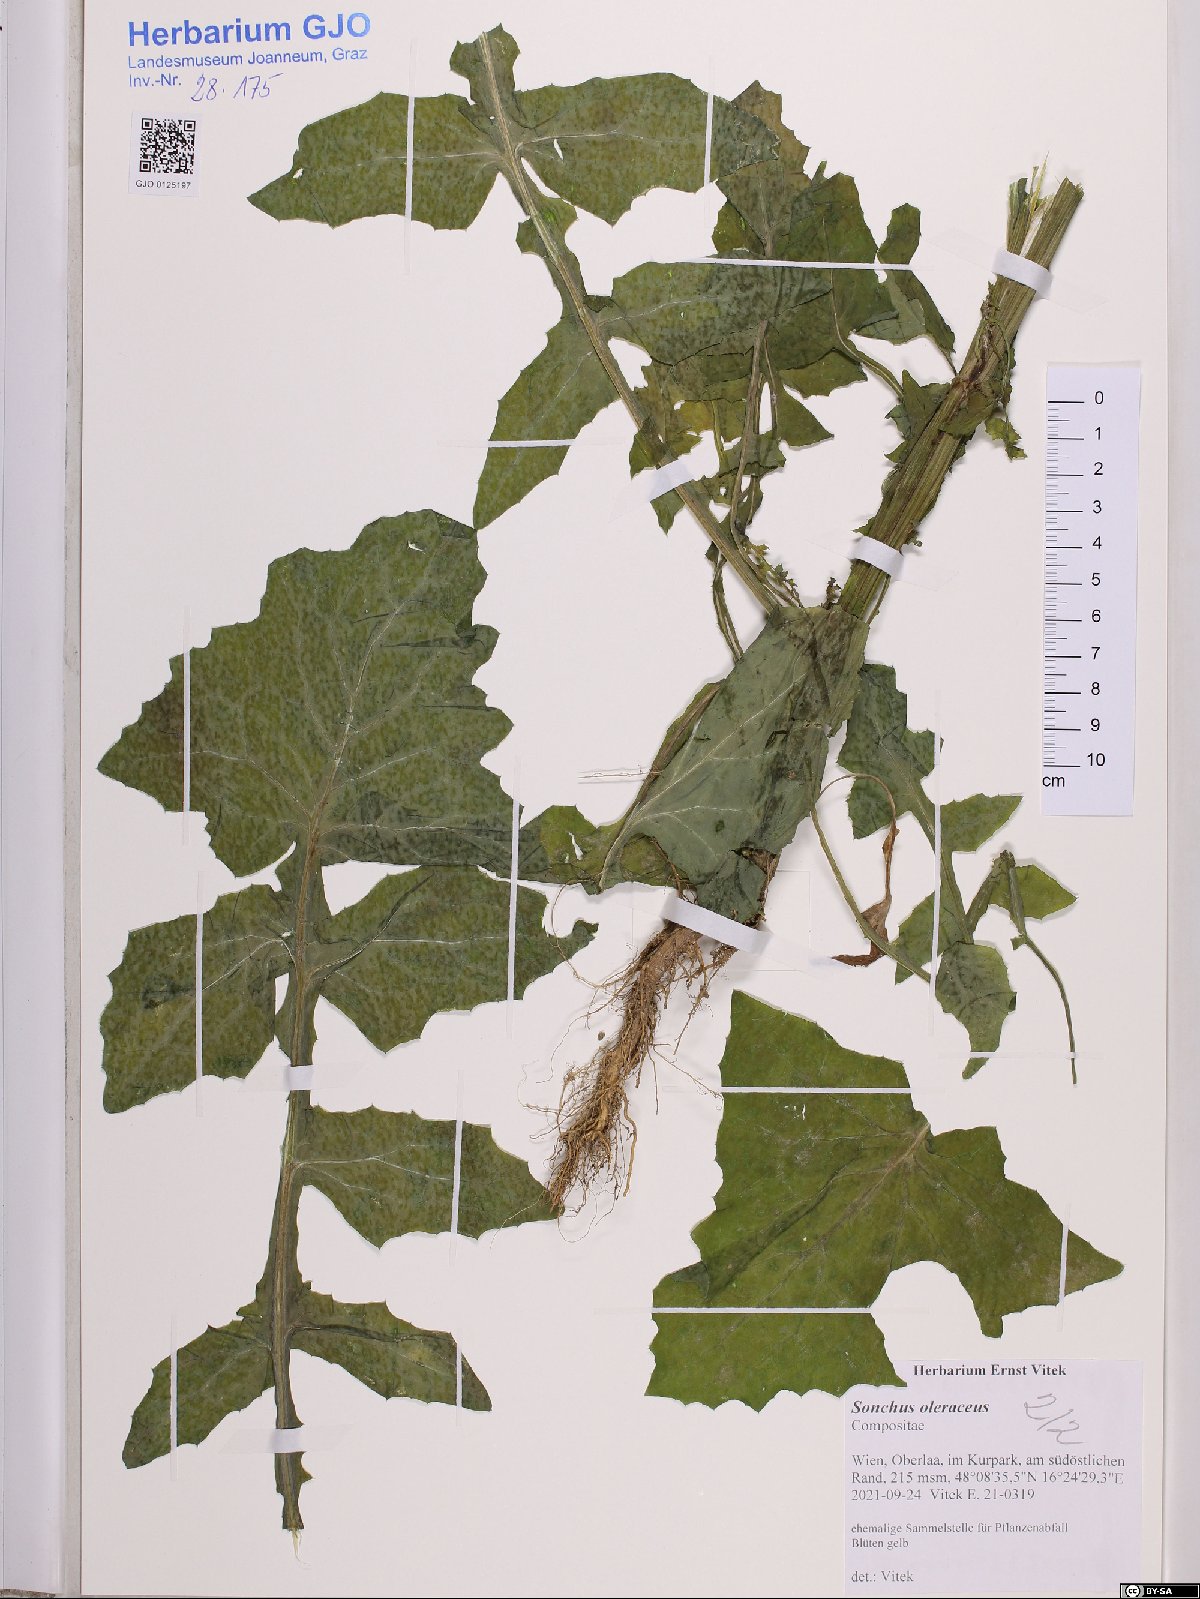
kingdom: Plantae
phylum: Tracheophyta
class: Magnoliopsida
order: Asterales
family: Asteraceae
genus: Sonchus
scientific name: Sonchus oleraceus
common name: Common sowthistle
